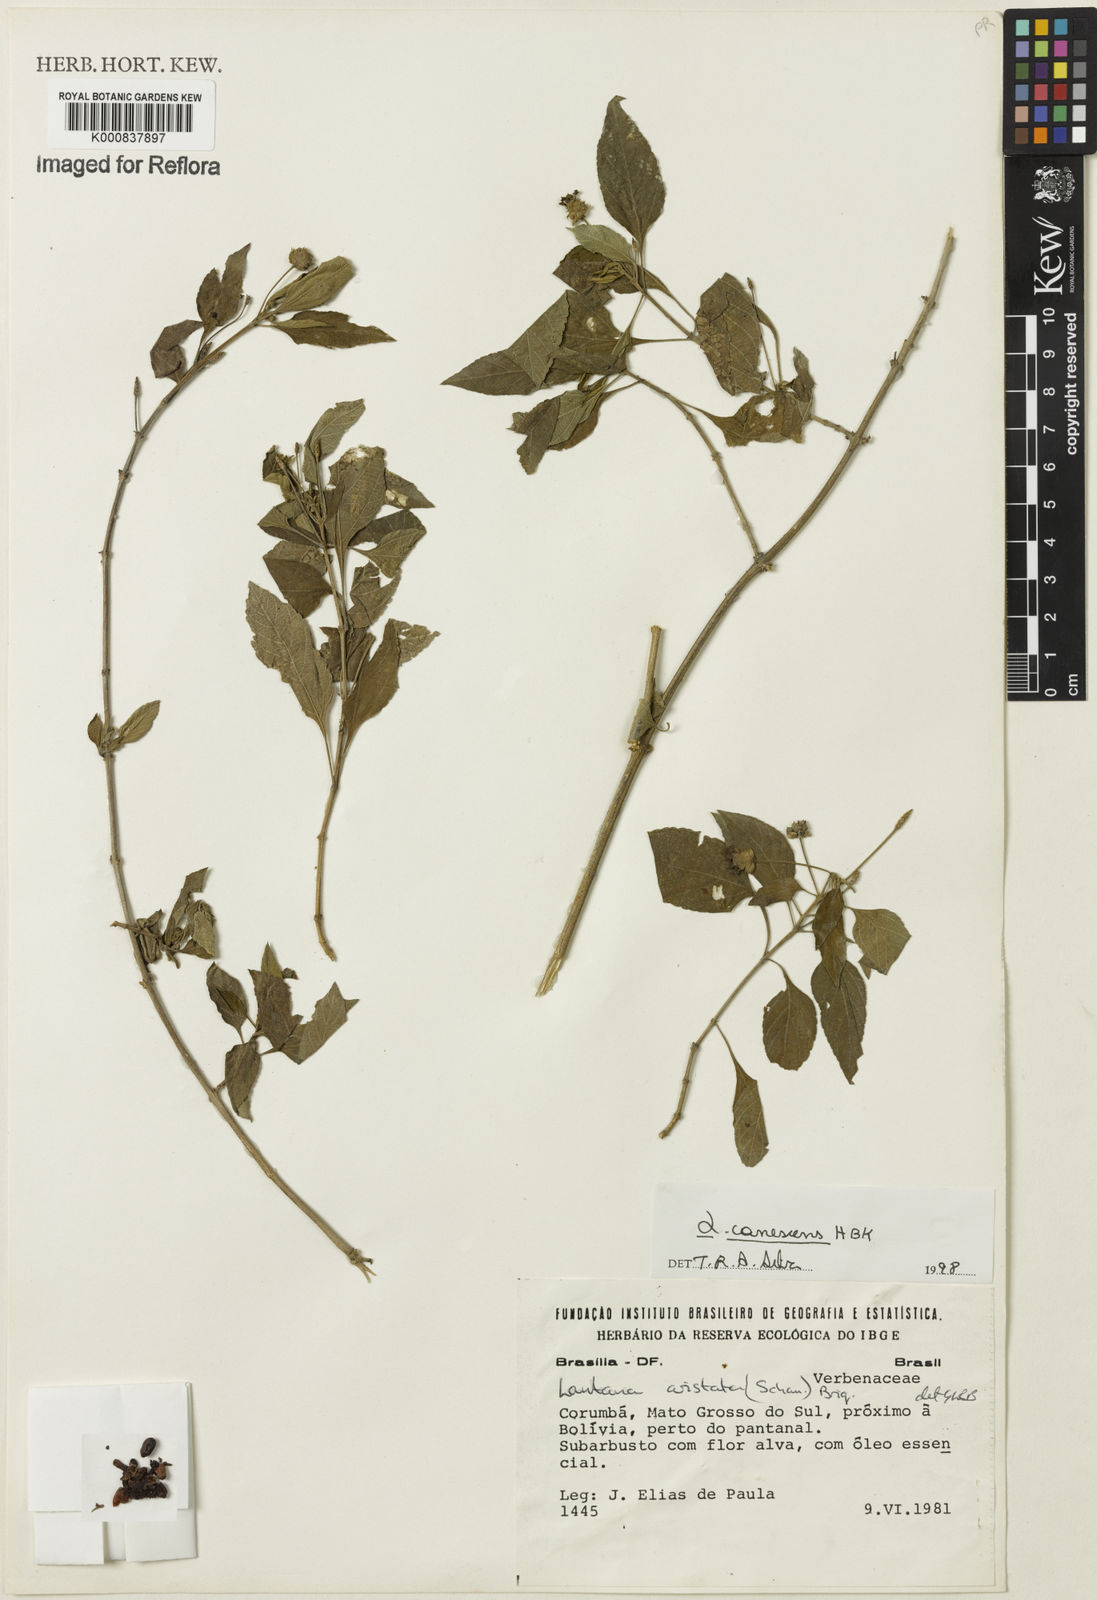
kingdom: Plantae
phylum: Tracheophyta
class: Magnoliopsida
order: Lamiales
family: Verbenaceae
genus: Lantana
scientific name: Lantana canescens
